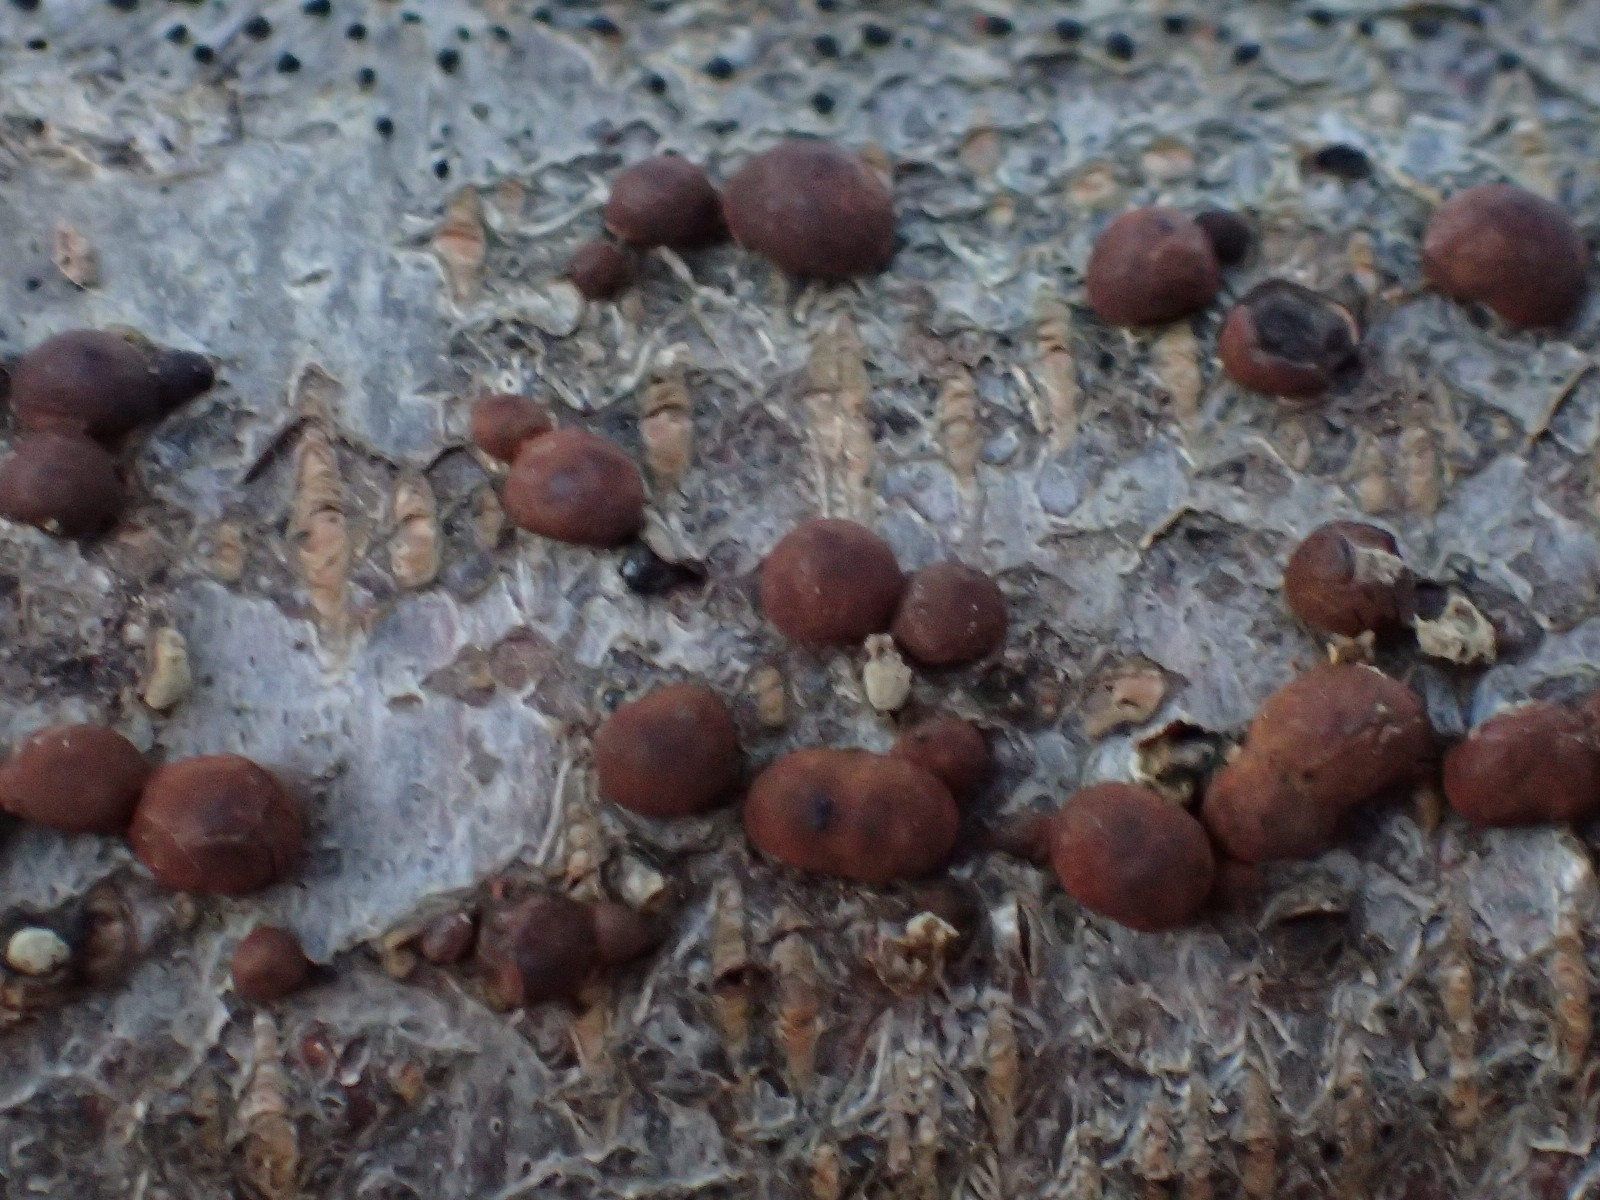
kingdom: Fungi
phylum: Ascomycota
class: Sordariomycetes
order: Xylariales
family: Hypoxylaceae
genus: Hypoxylon
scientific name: Hypoxylon fragiforme
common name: kuljordbær
